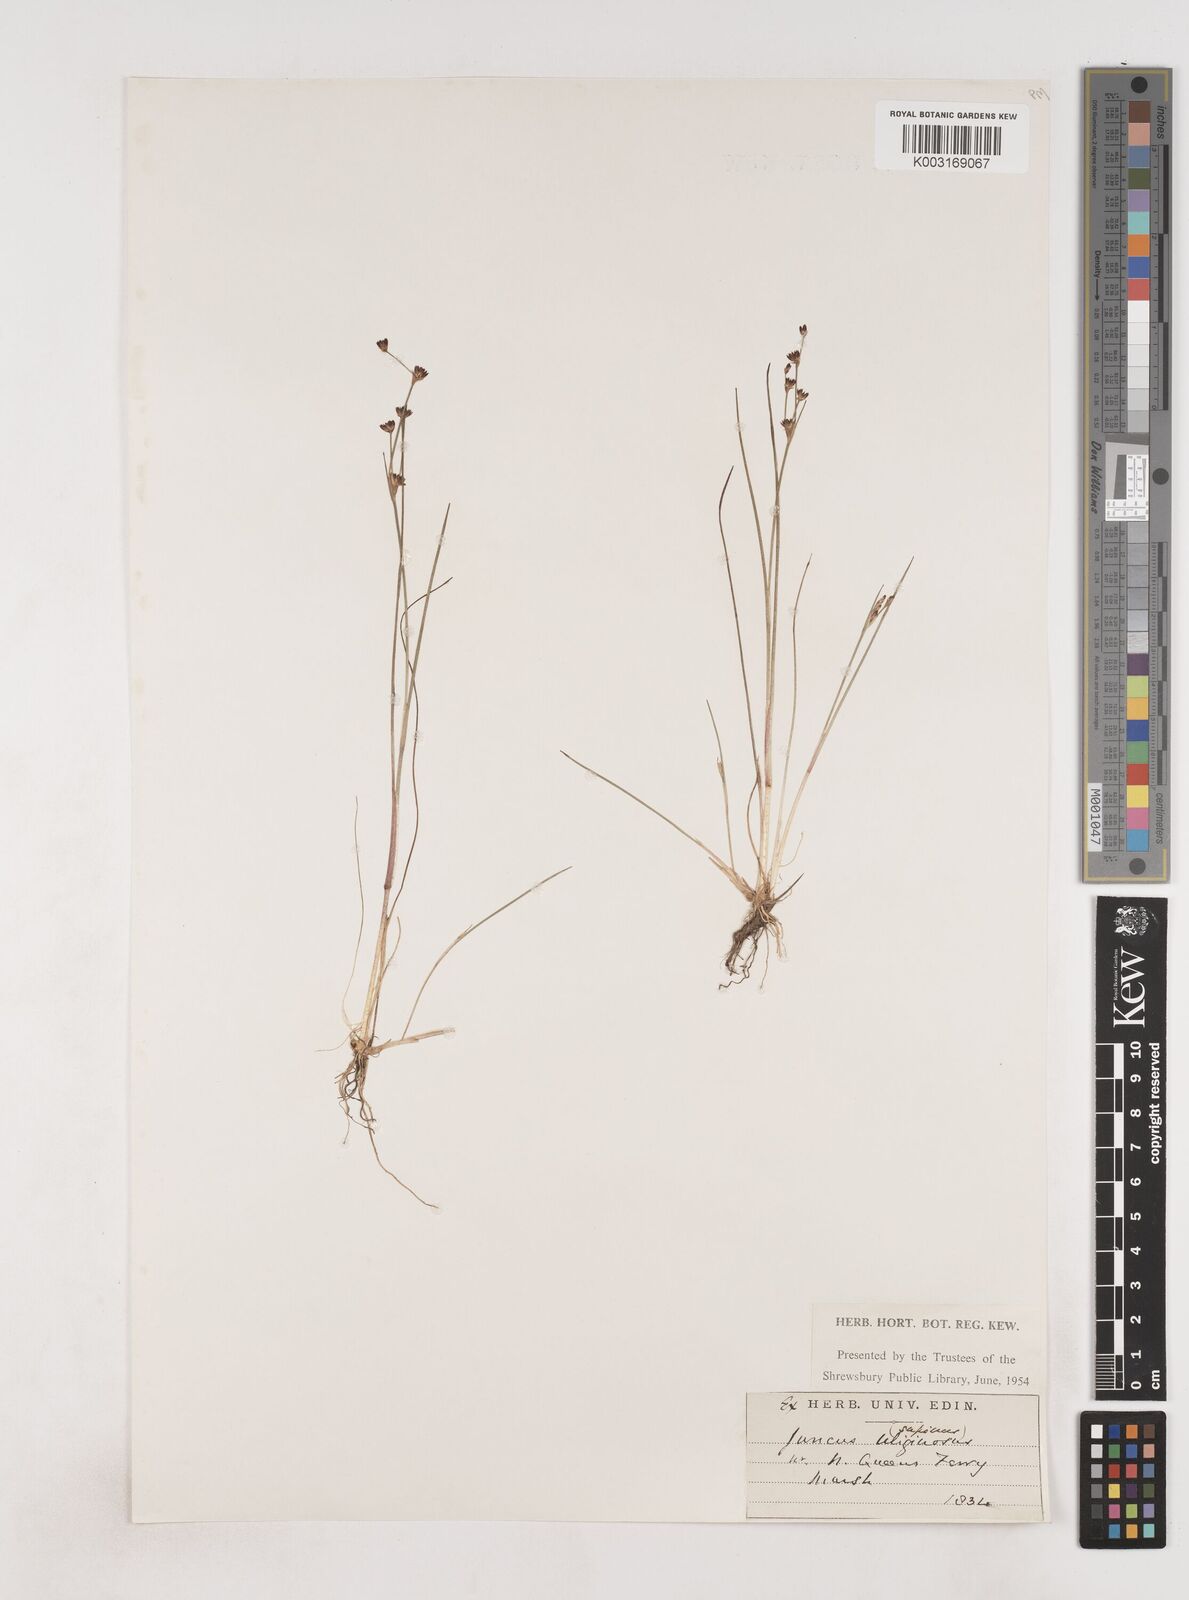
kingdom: Plantae
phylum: Tracheophyta
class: Liliopsida
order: Poales
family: Juncaceae
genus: Juncus
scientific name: Juncus bulbosus
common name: Bulbous rush
